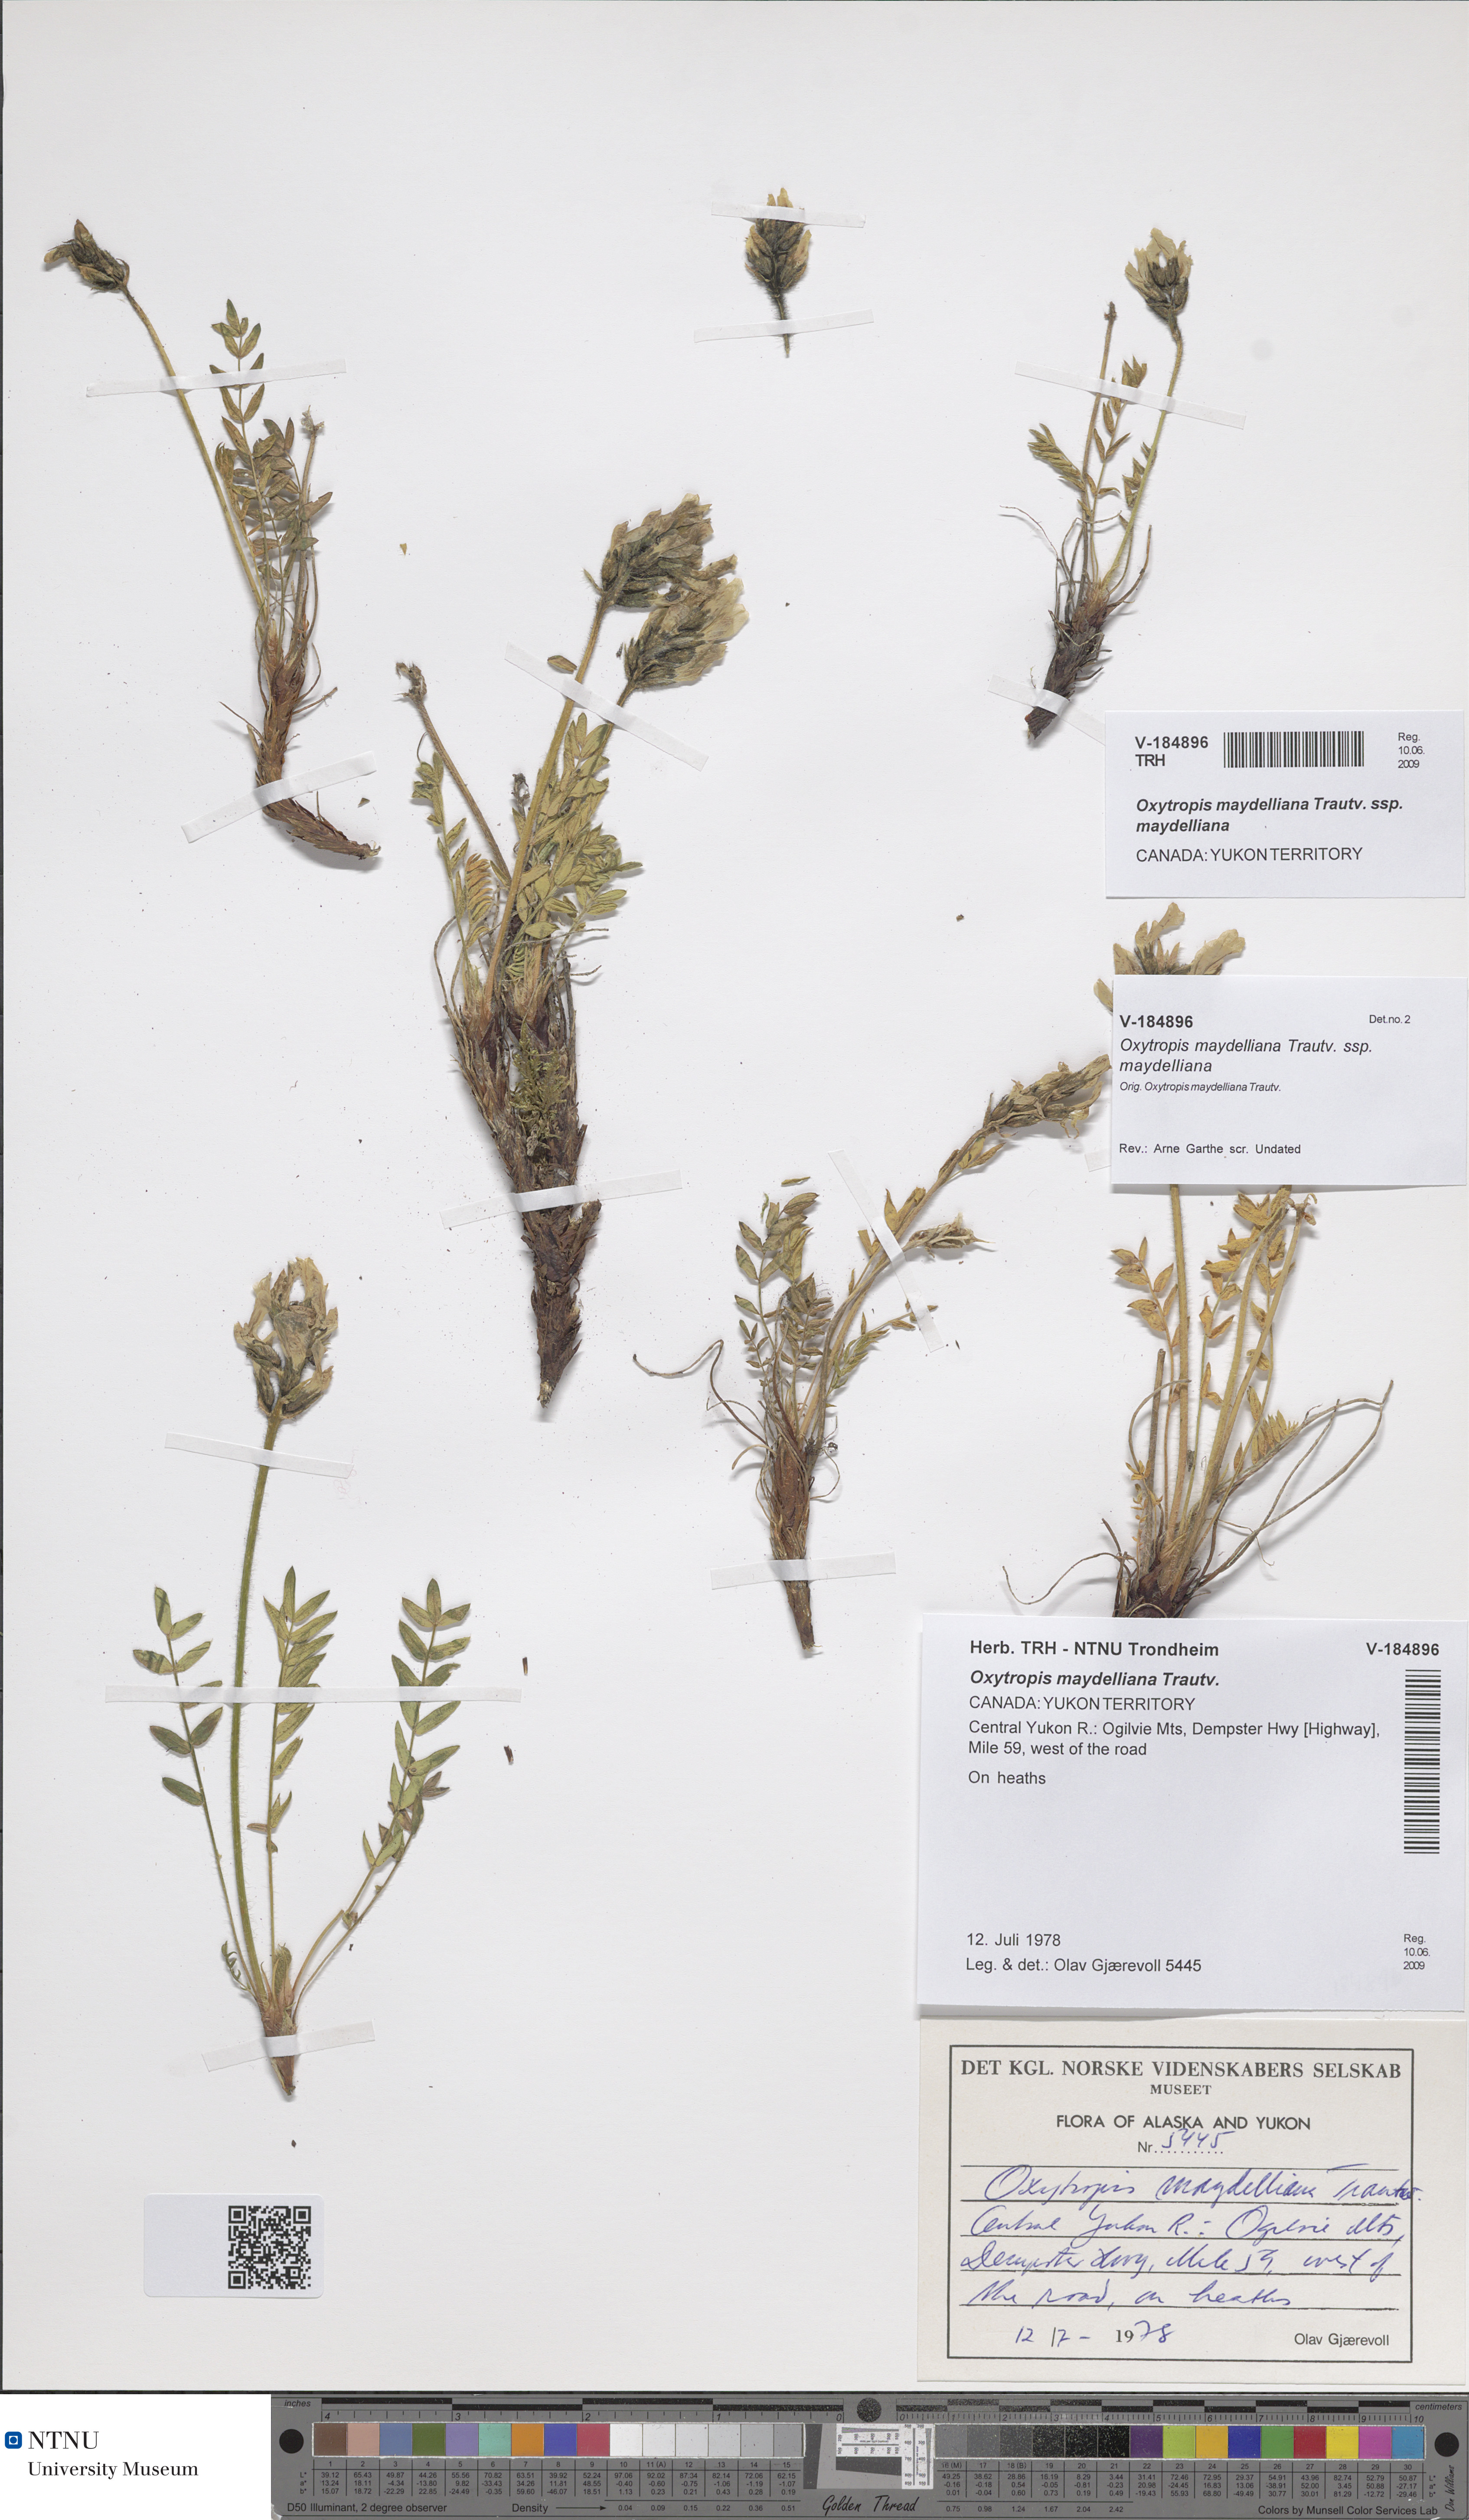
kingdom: Plantae
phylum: Tracheophyta
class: Magnoliopsida
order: Fabales
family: Fabaceae
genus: Oxytropis
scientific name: Oxytropis maydelliana
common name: Maydell's locoweed
